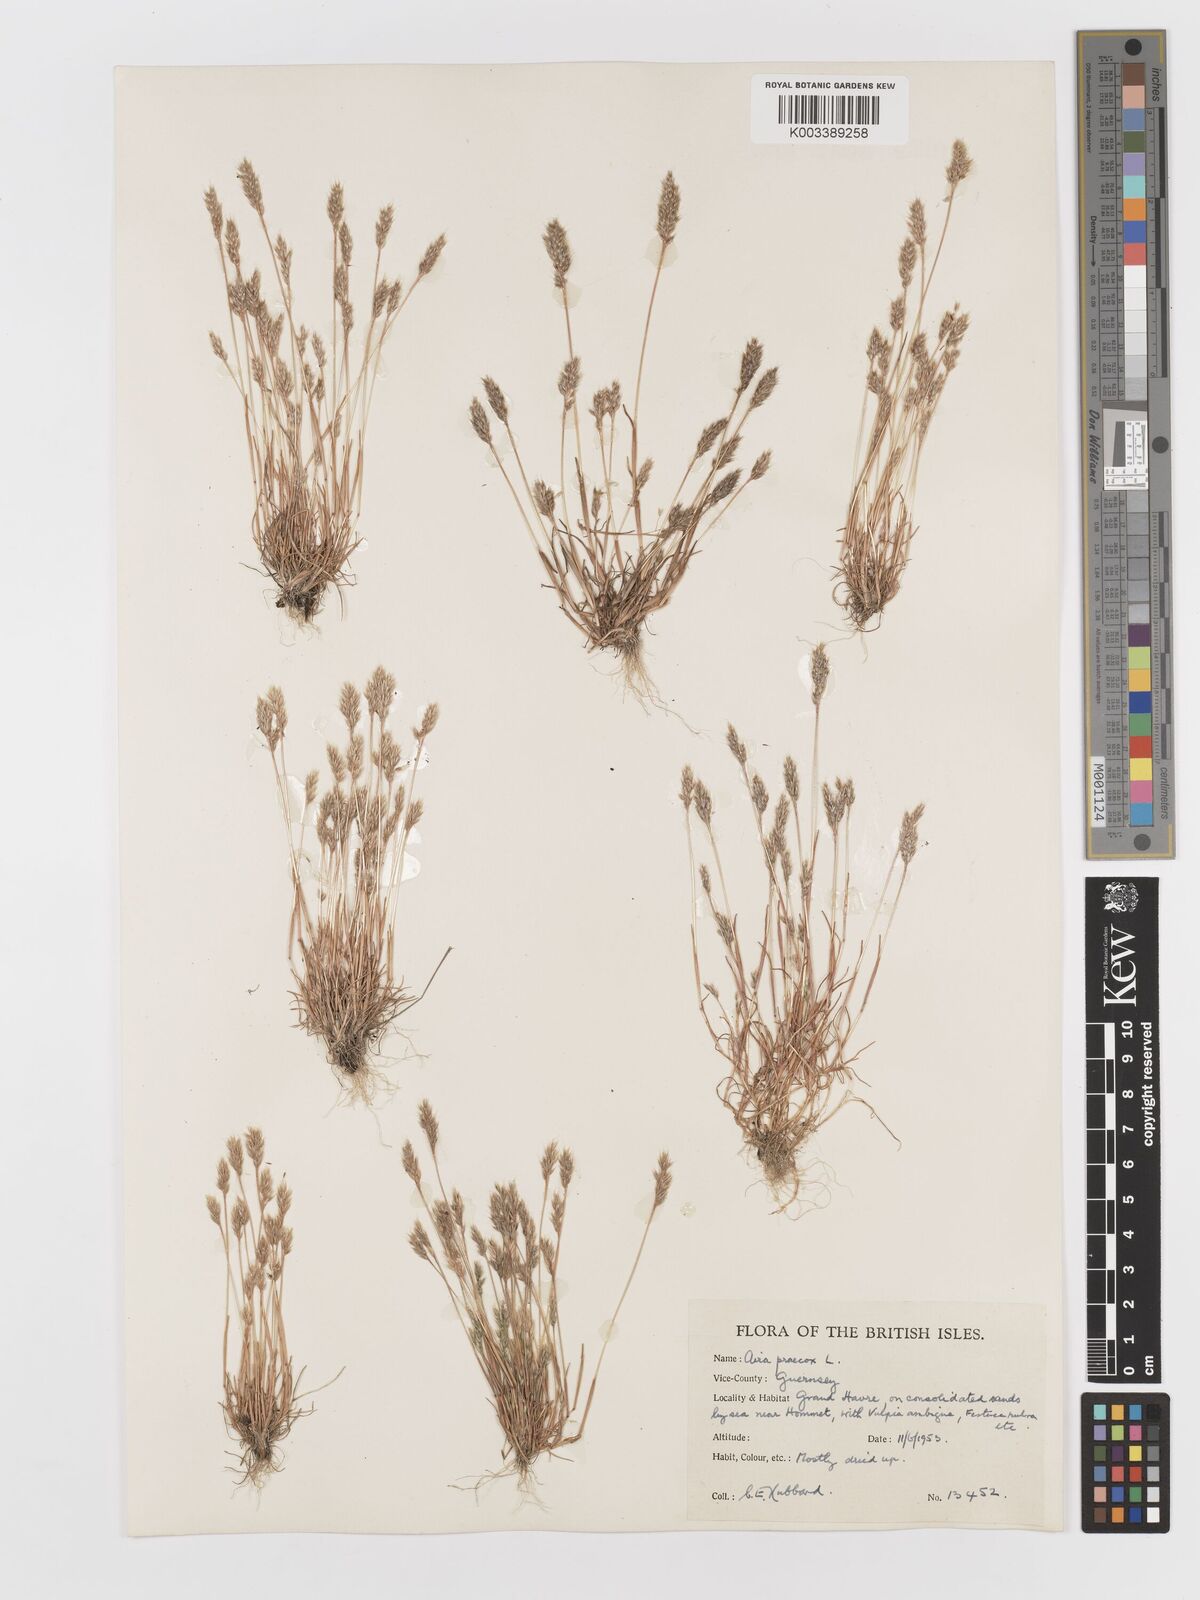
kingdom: Plantae
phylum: Tracheophyta
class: Liliopsida
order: Poales
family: Poaceae
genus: Aira
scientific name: Aira praecox
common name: Early hair-grass
